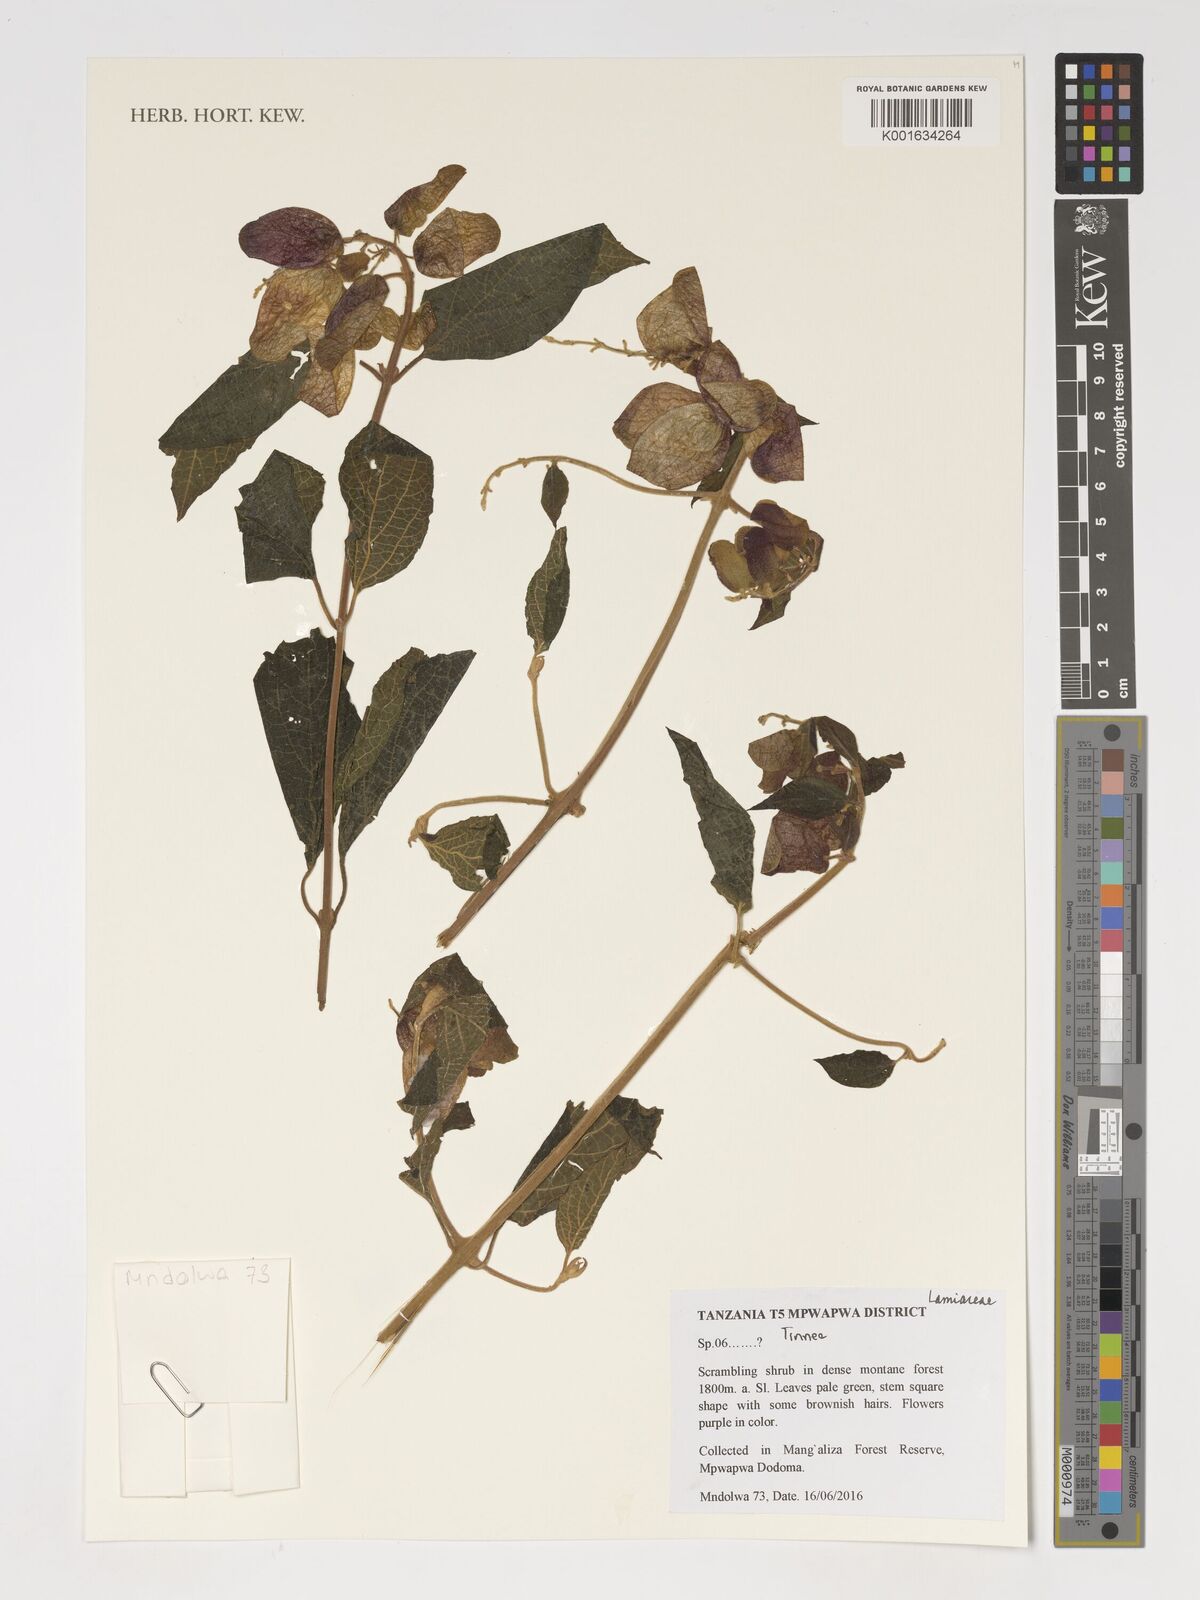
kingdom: Plantae
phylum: Tracheophyta
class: Magnoliopsida
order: Lamiales
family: Lamiaceae
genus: Tinnea
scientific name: Tinnea
